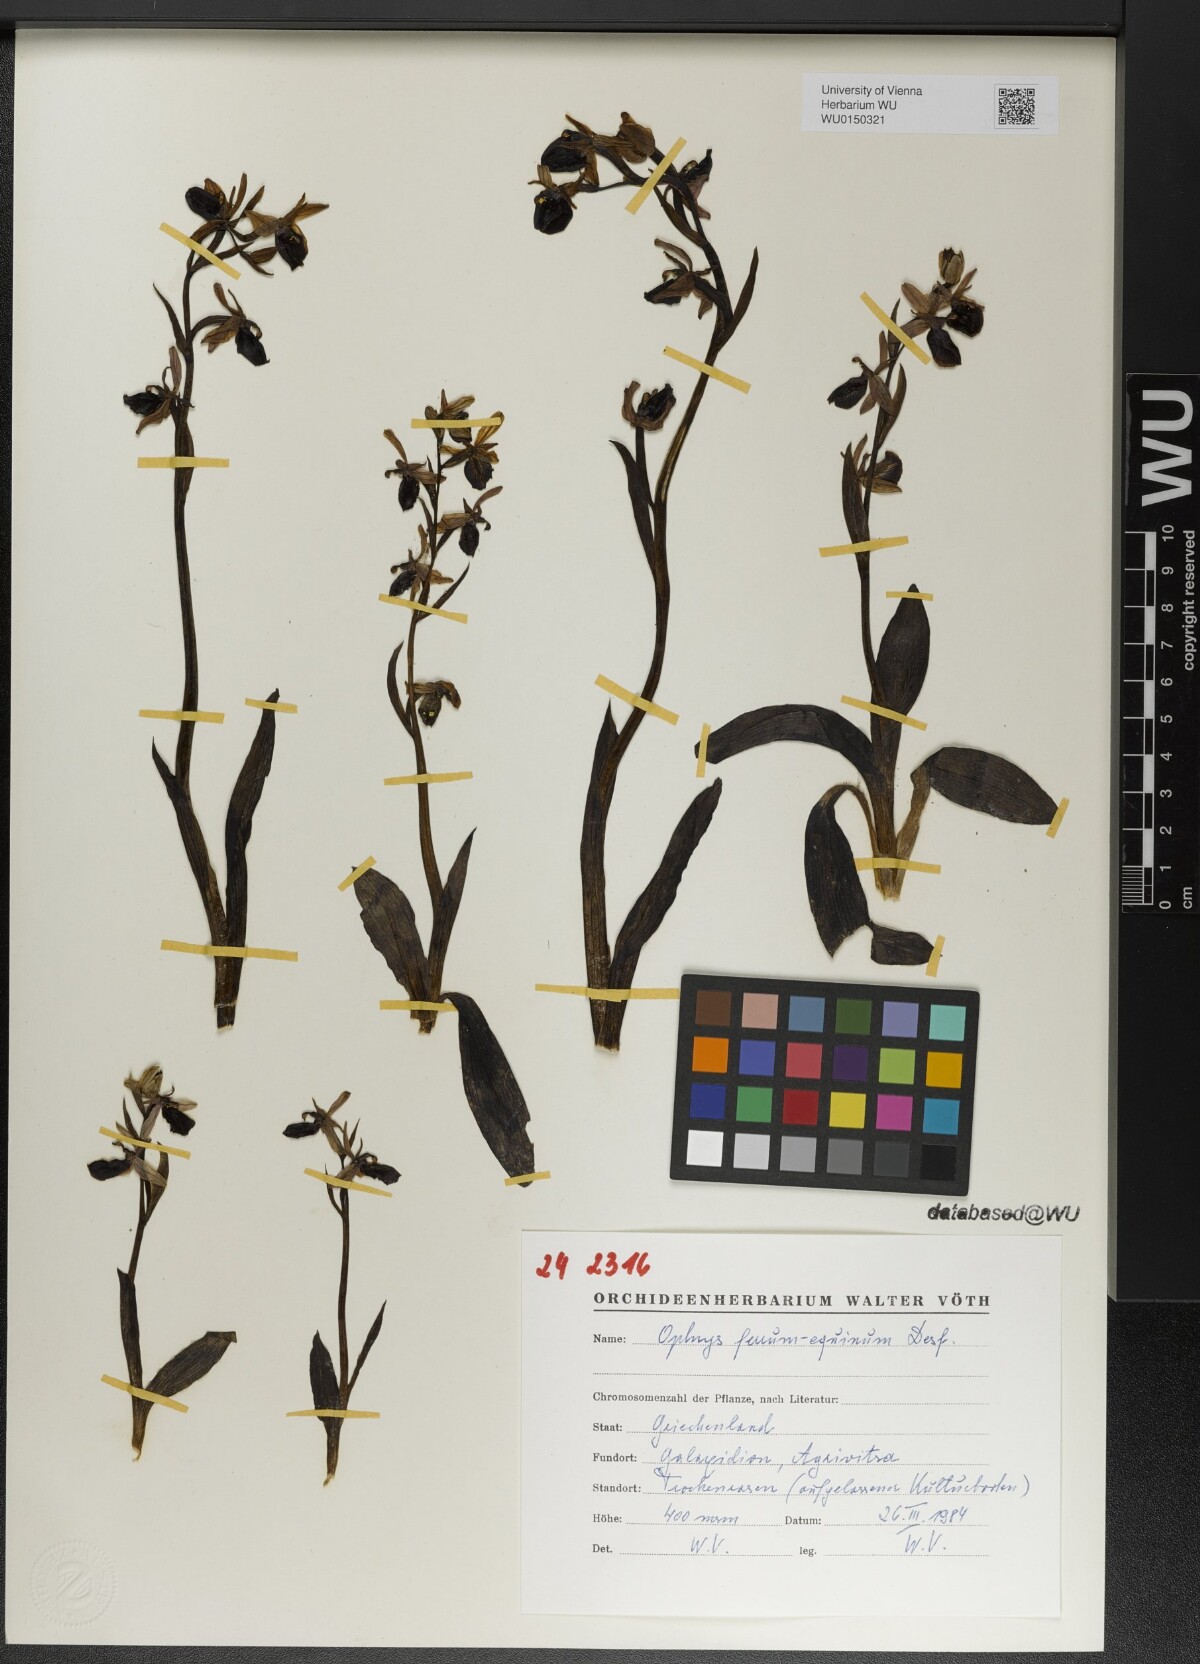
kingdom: Plantae
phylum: Tracheophyta
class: Liliopsida
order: Asparagales
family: Orchidaceae
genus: Ophrys
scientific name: Ophrys ferrum-equinum
